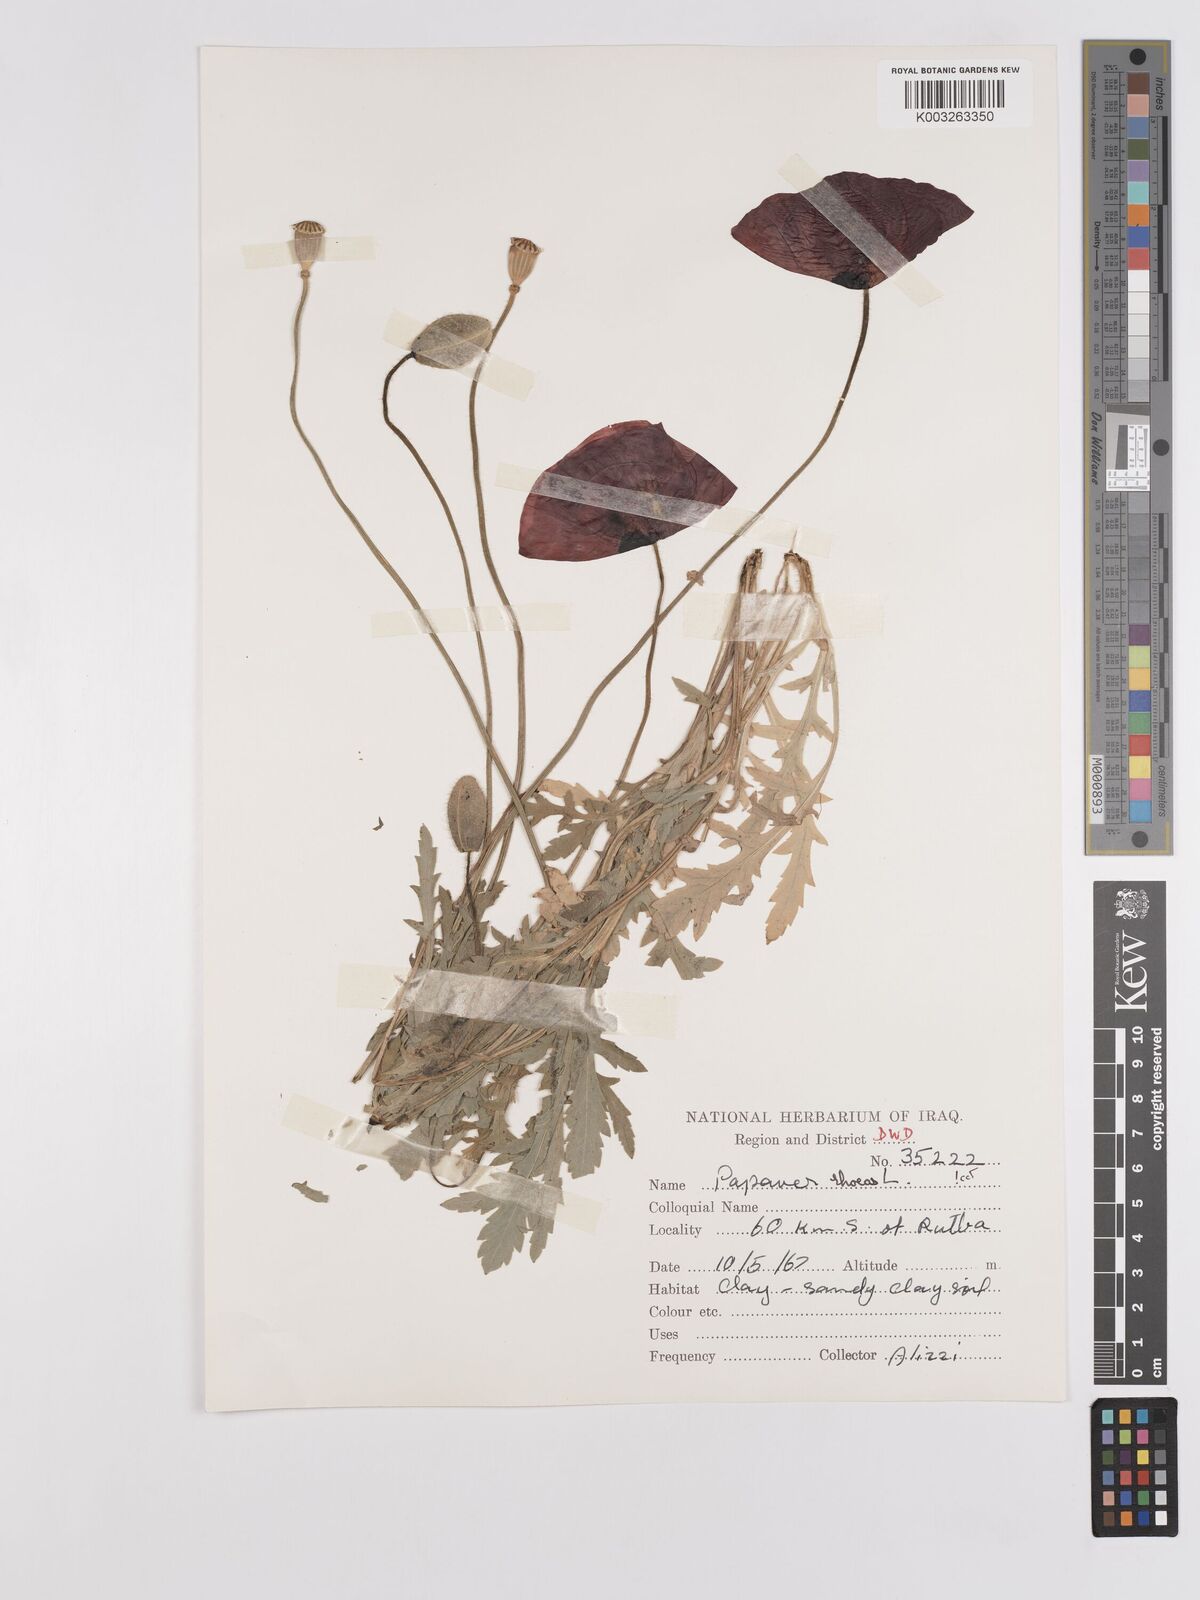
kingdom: Plantae
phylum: Tracheophyta
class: Magnoliopsida
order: Ranunculales
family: Papaveraceae
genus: Papaver
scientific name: Papaver rhoeas
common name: Corn poppy
